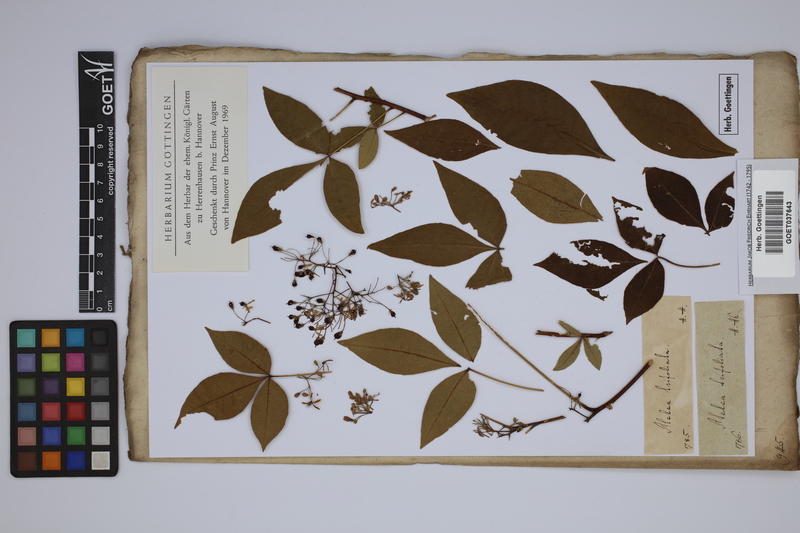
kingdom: Plantae
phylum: Tracheophyta
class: Magnoliopsida
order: Sapindales
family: Rutaceae
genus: Ptelea
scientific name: Ptelea trifoliata
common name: Common hop-tree
